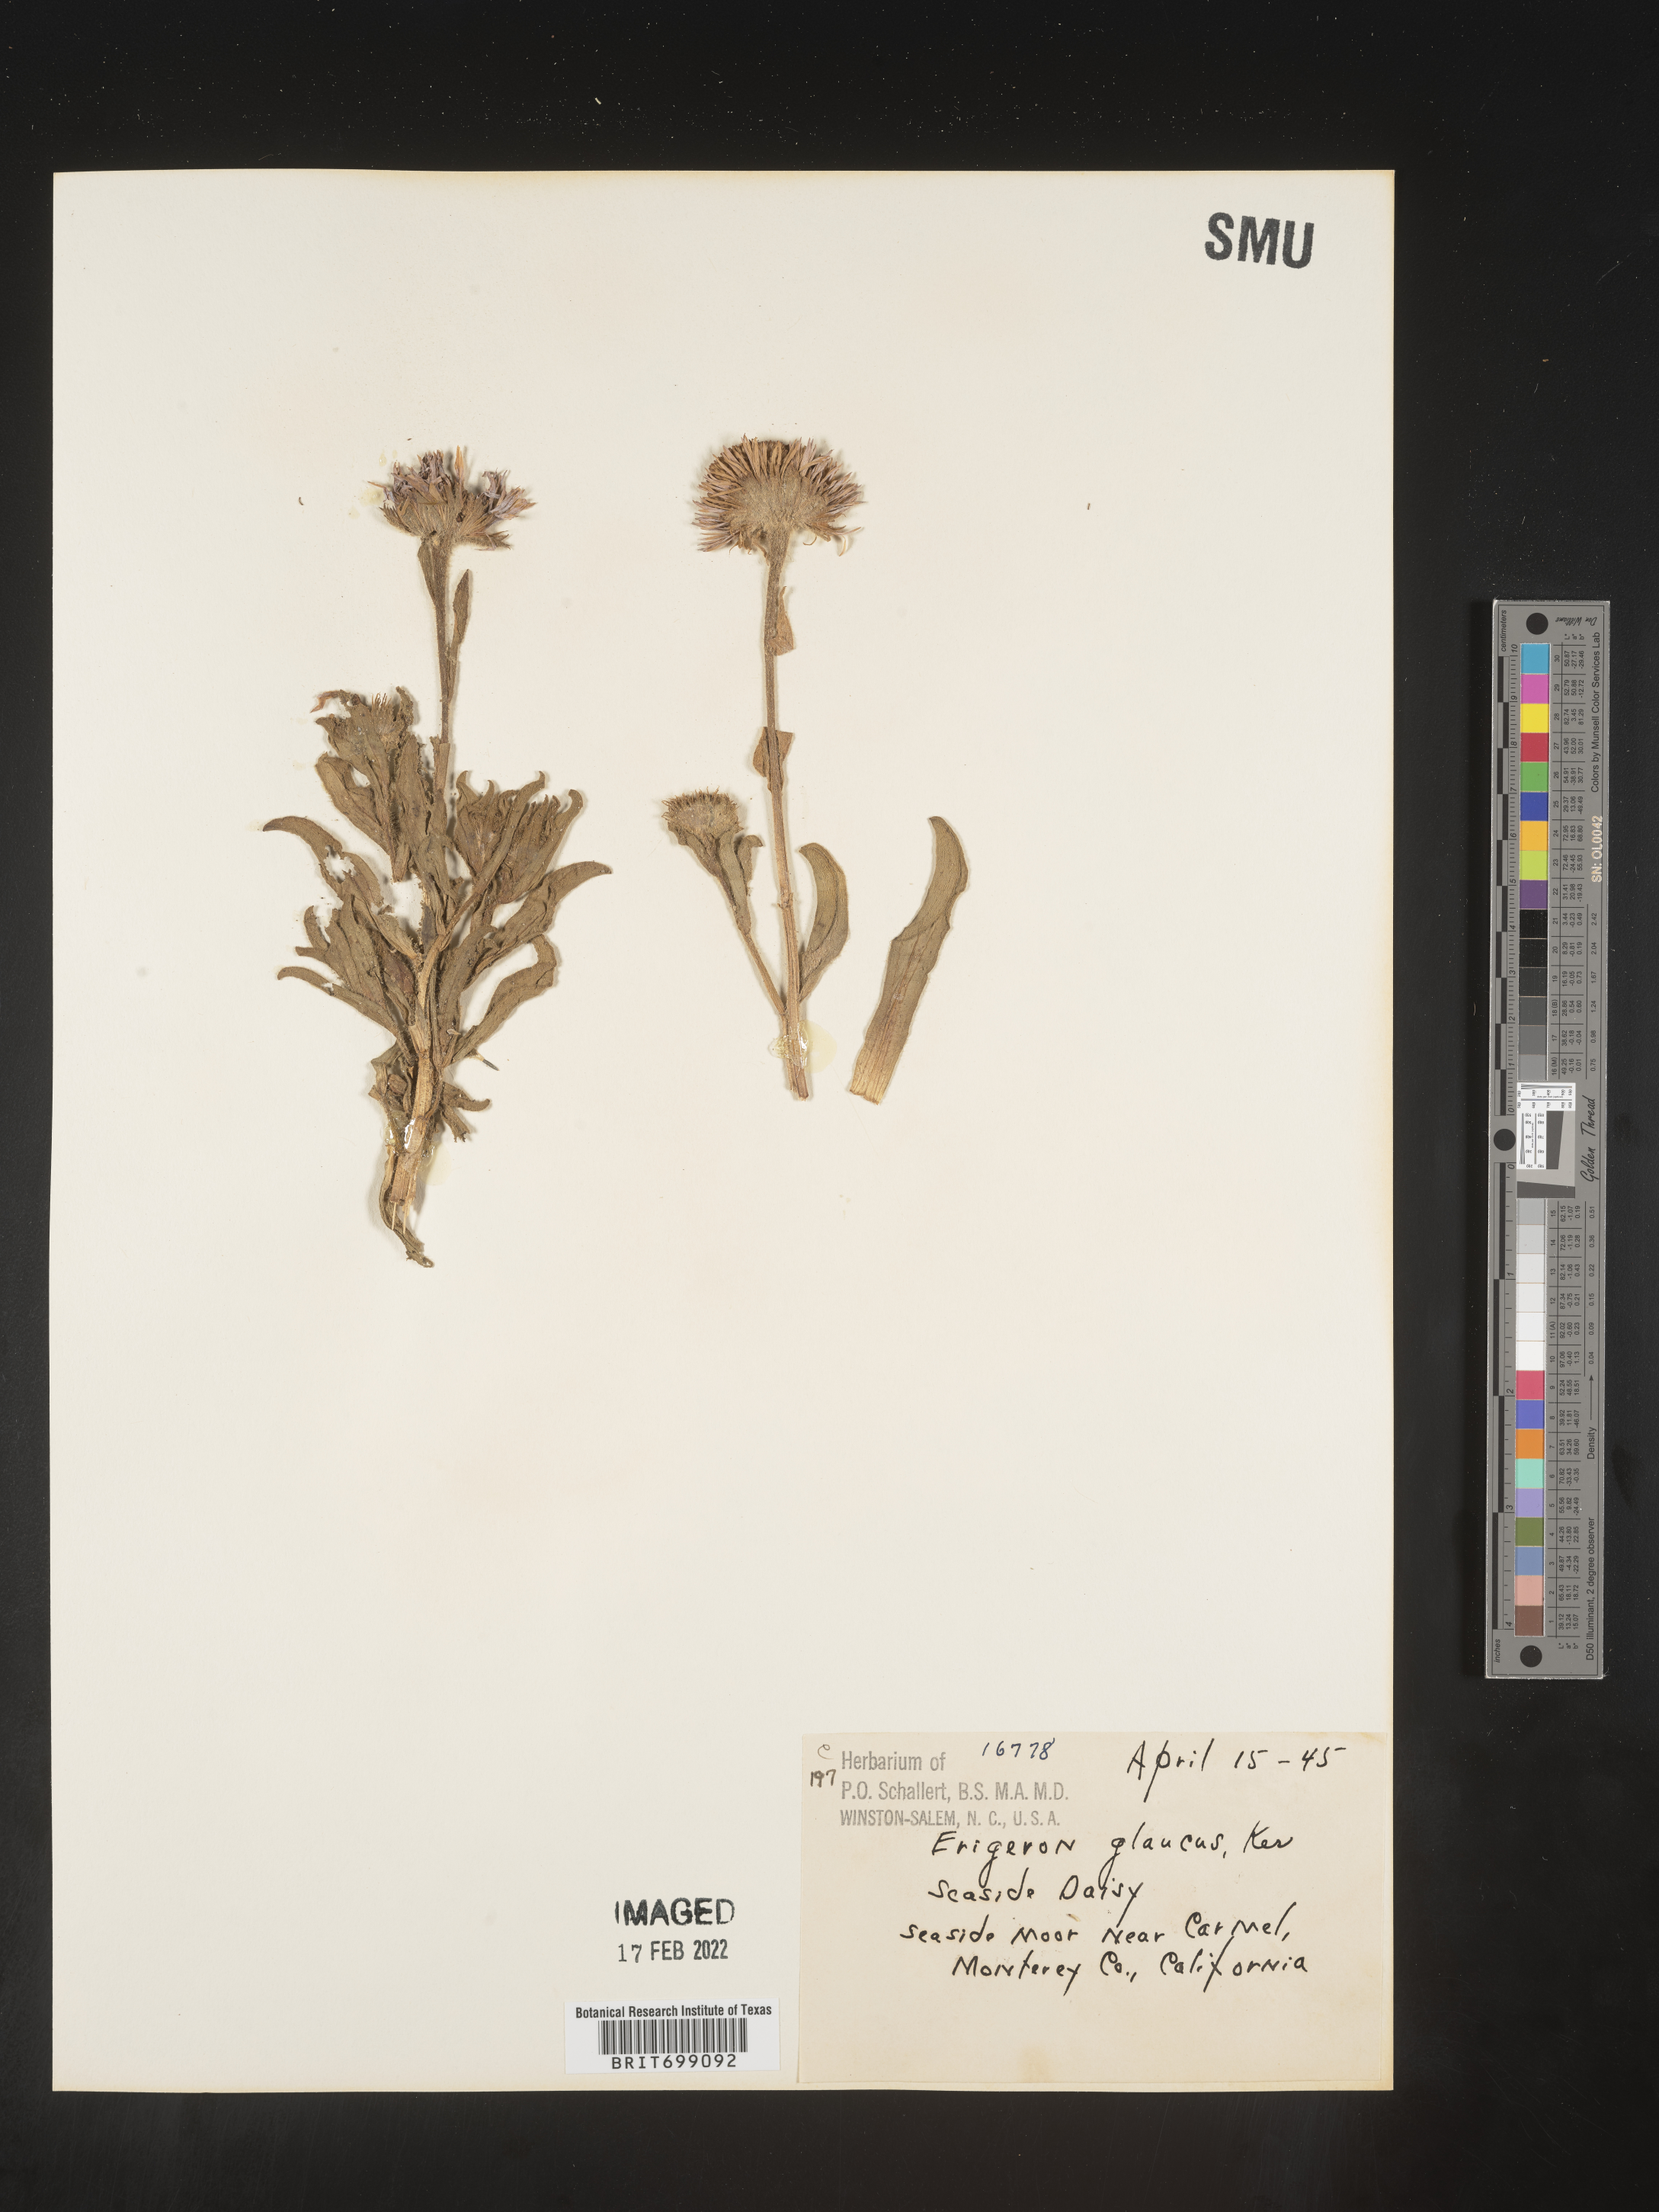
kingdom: Plantae
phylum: Tracheophyta
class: Magnoliopsida
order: Asterales
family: Asteraceae
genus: Erigeron
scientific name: Erigeron glaucus
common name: Seaside daisy
